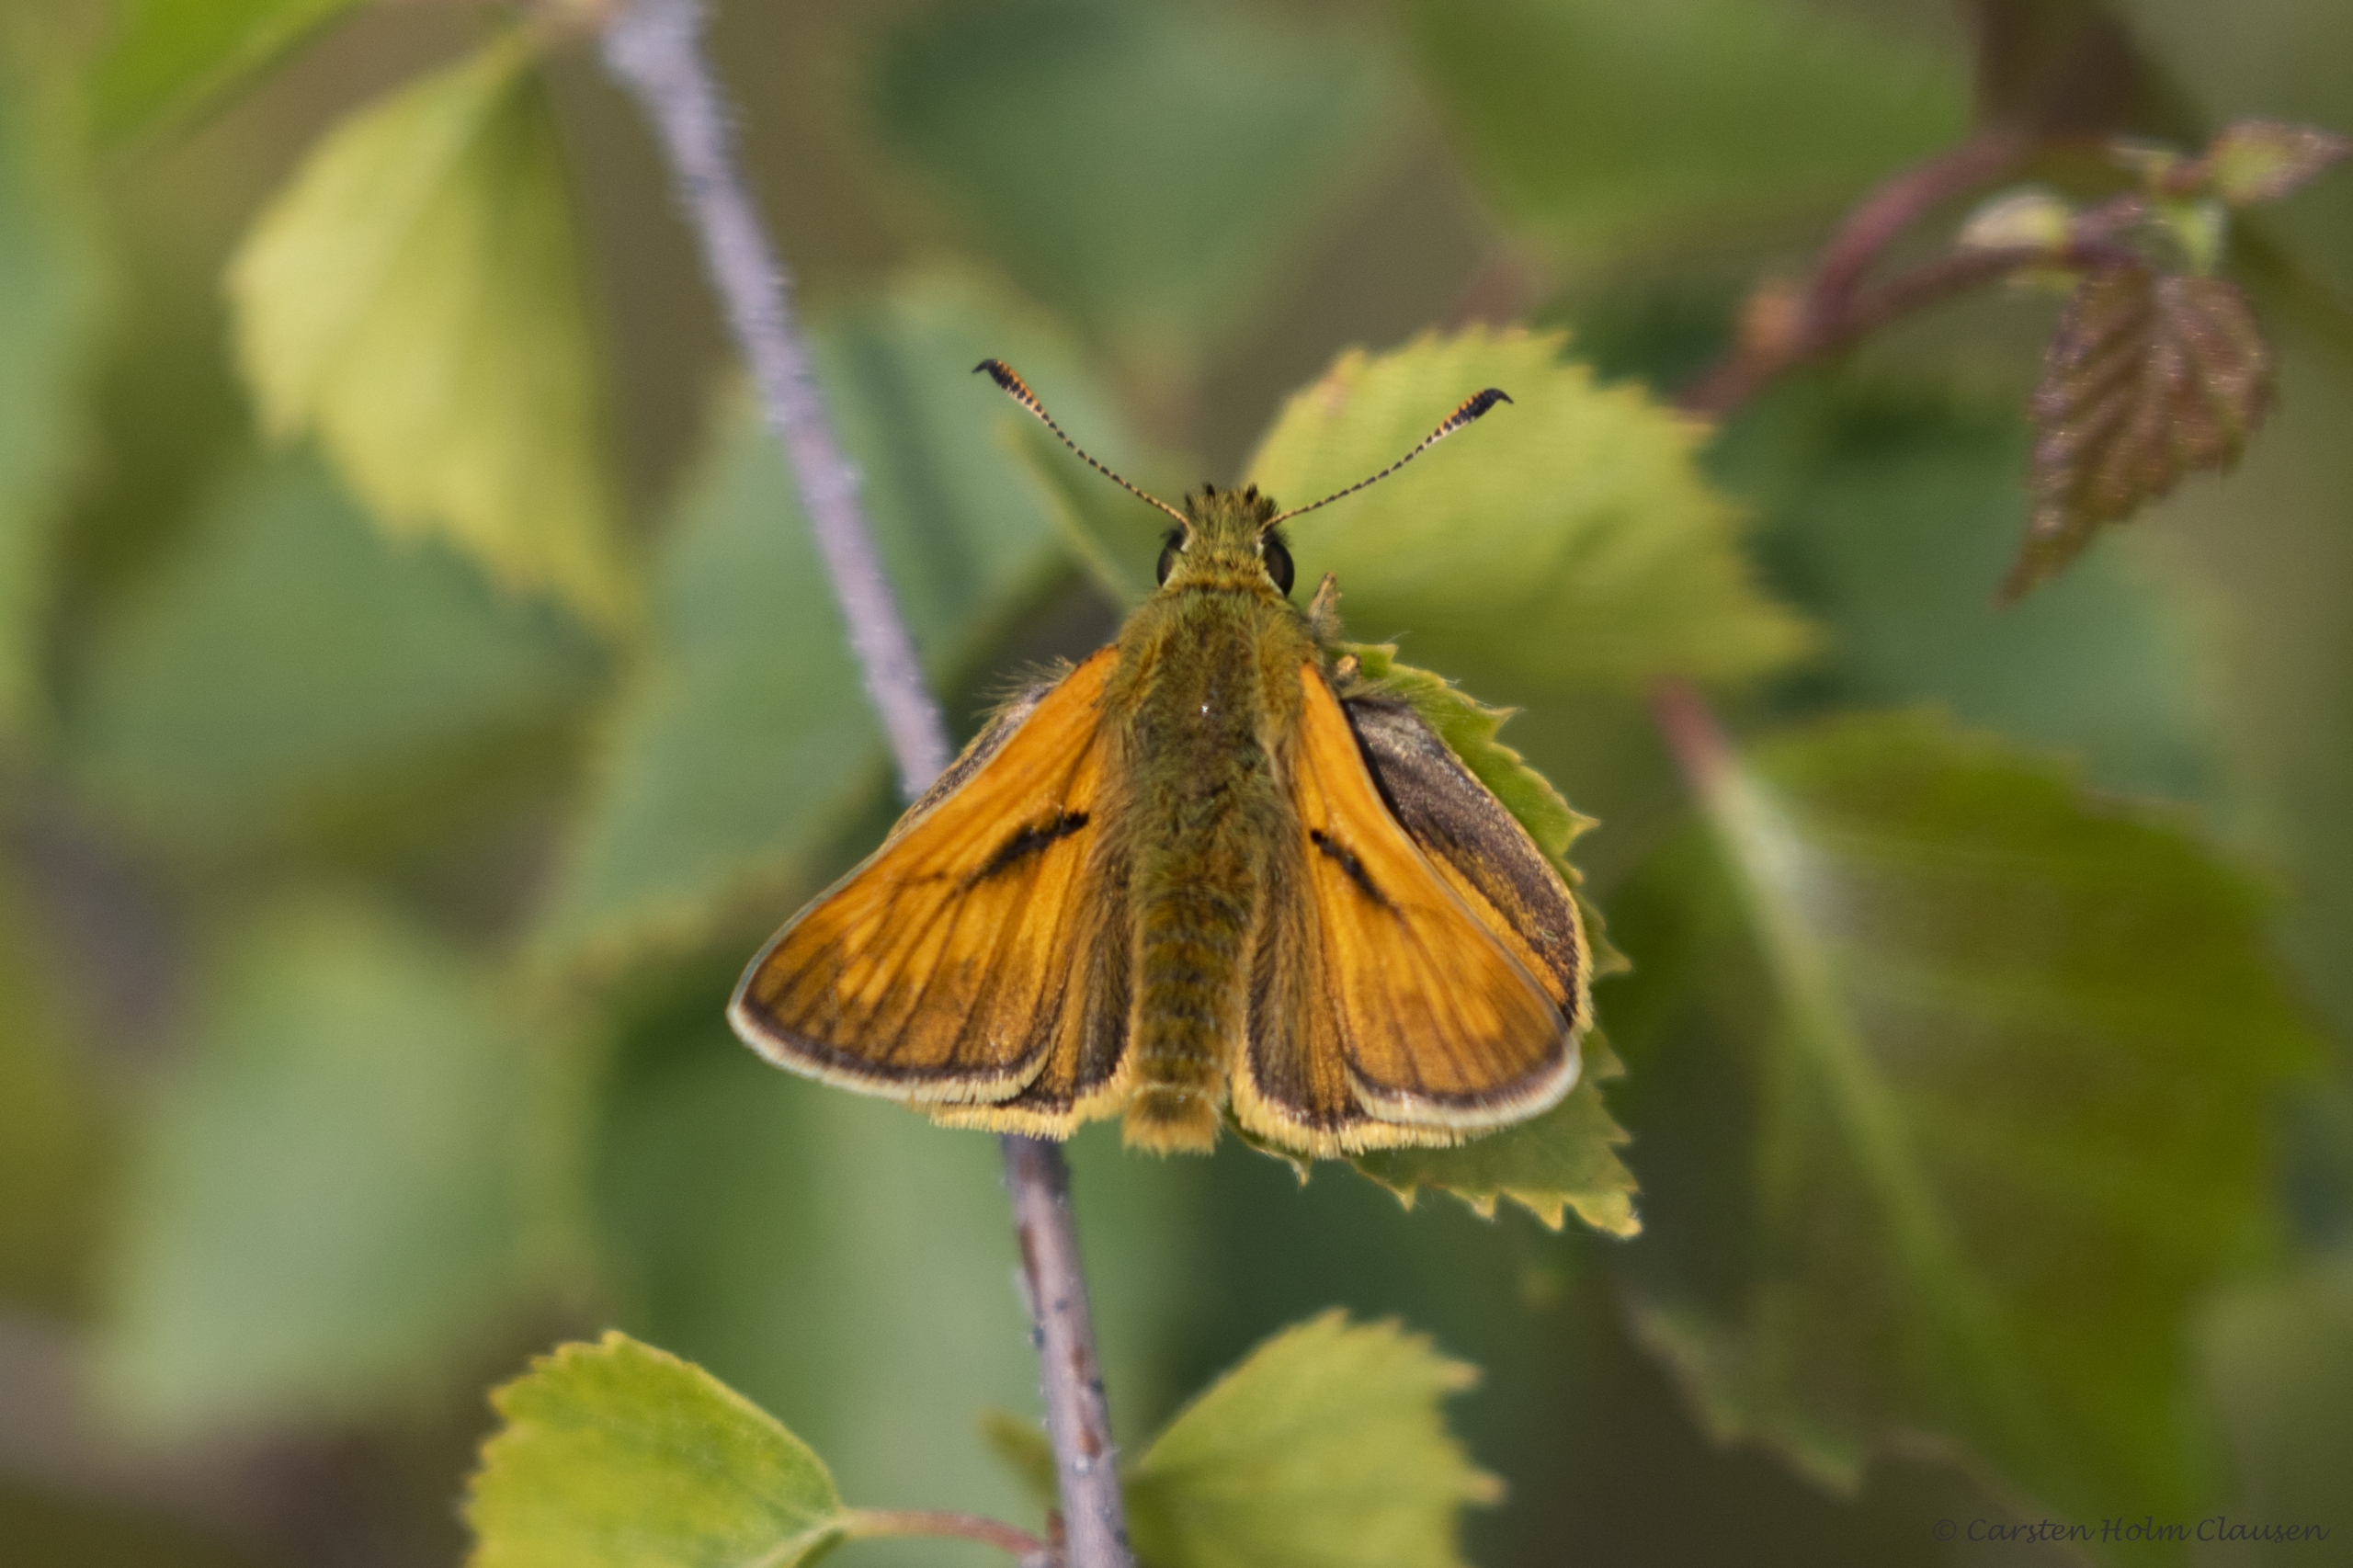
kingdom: Animalia
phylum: Arthropoda
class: Insecta
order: Lepidoptera
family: Hesperiidae
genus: Ochlodes
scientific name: Ochlodes venata
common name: Stor bredpande
